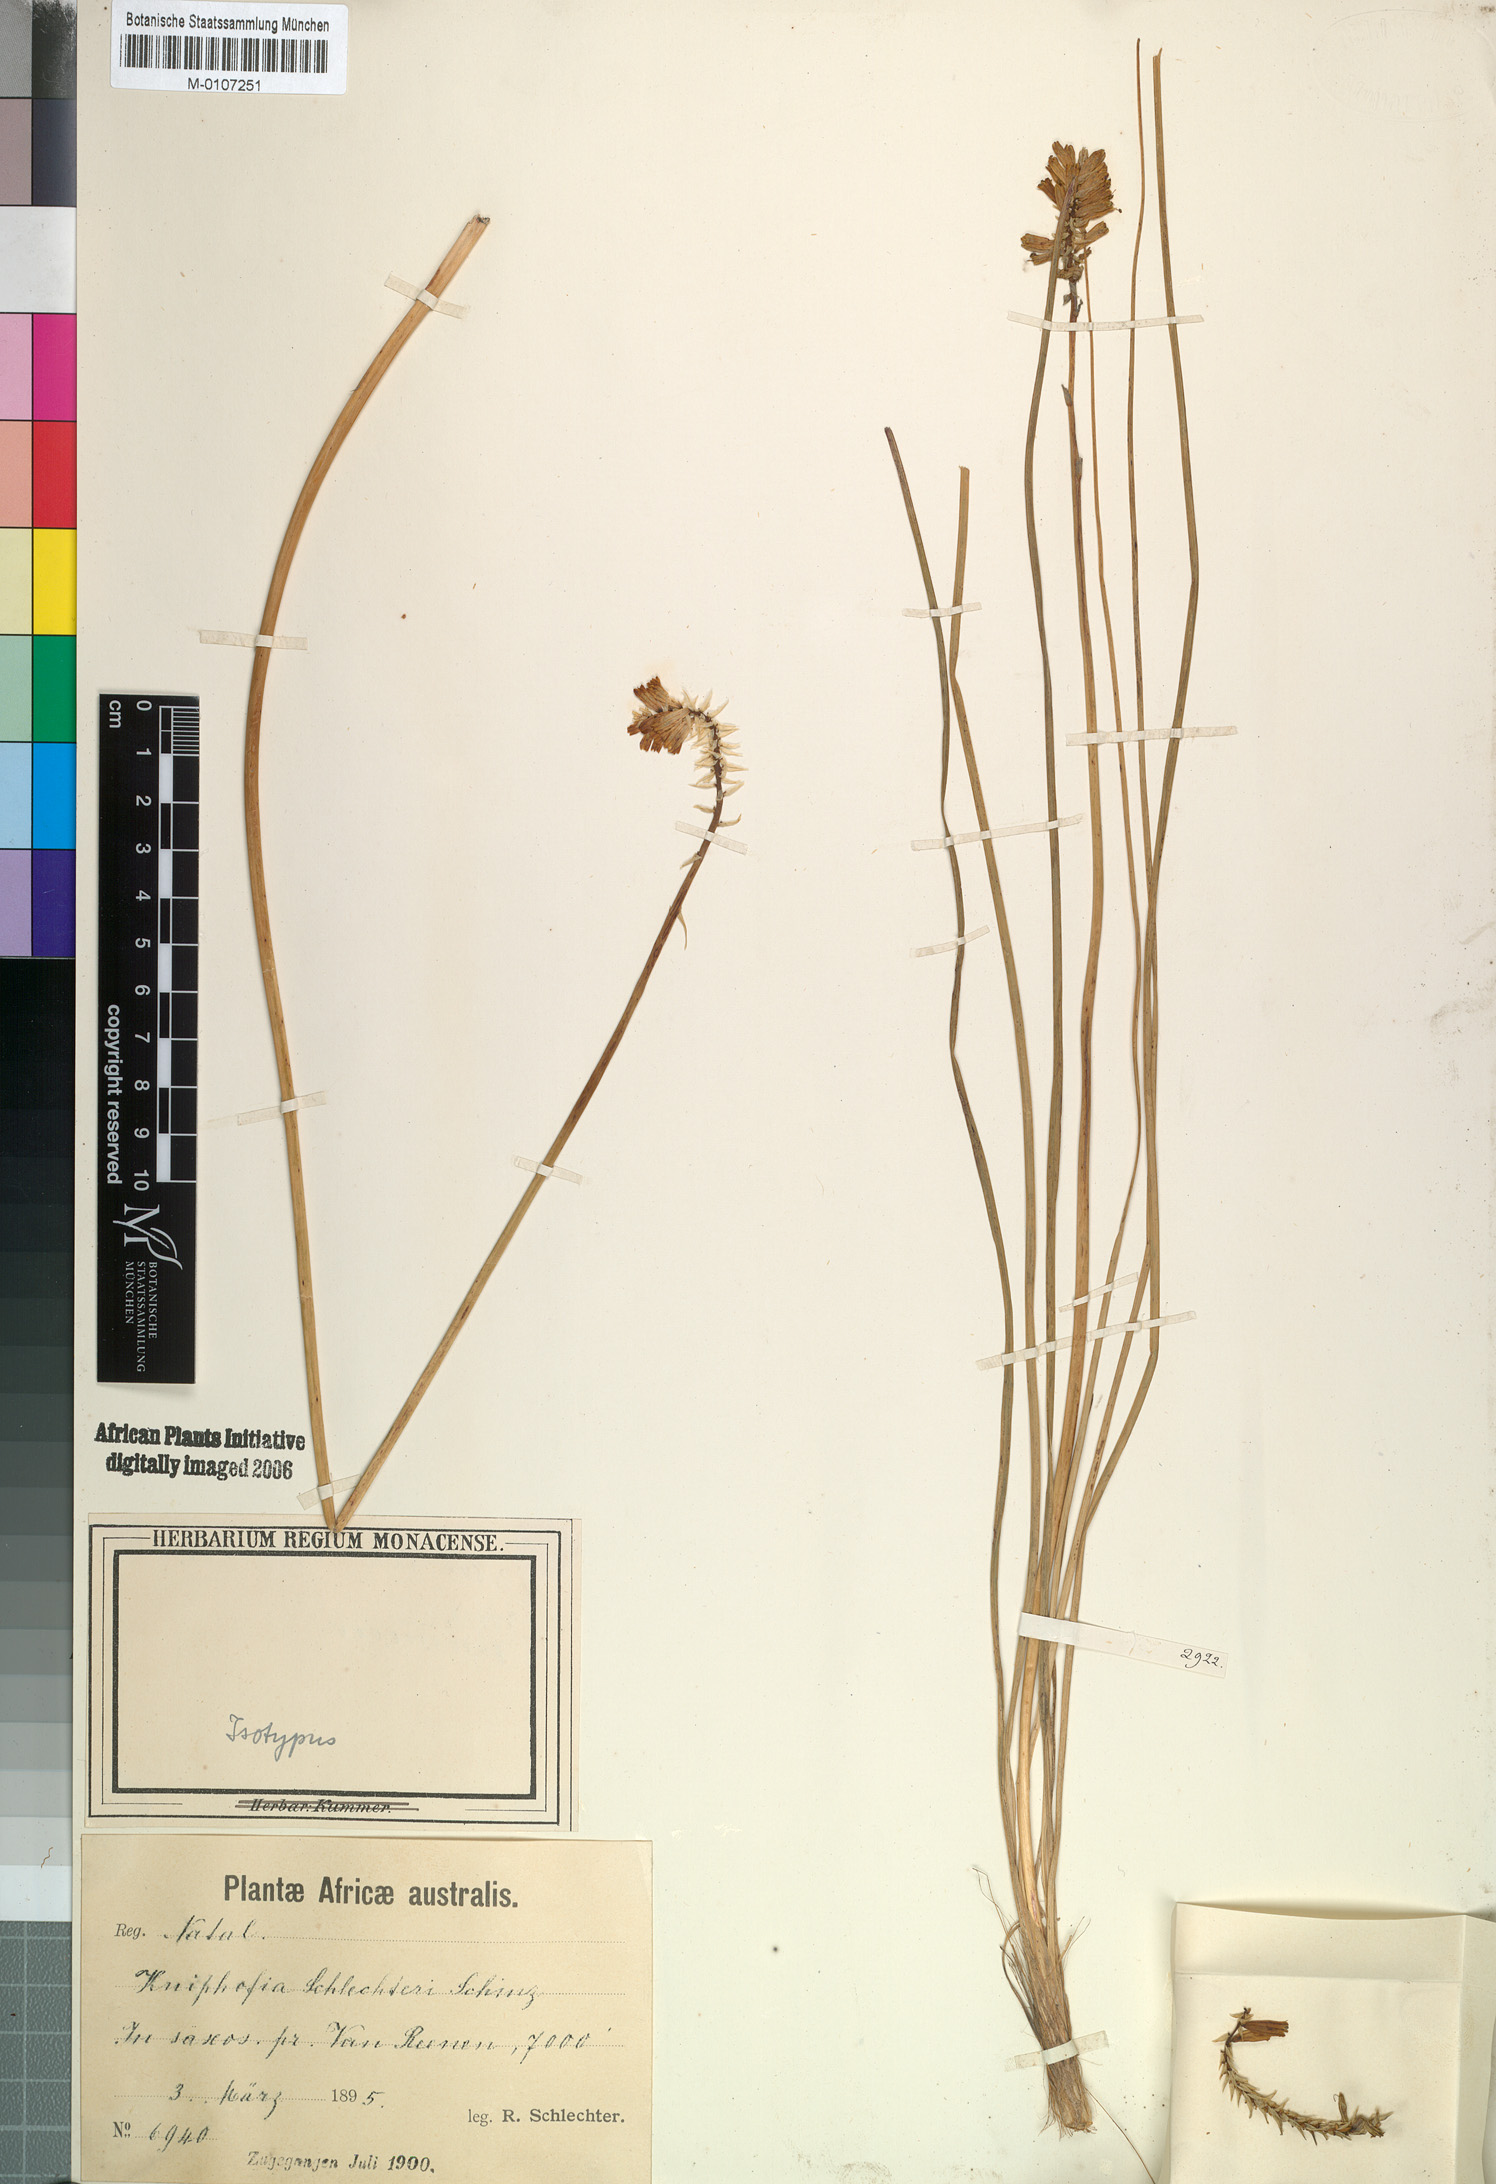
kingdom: Plantae
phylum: Tracheophyta
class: Liliopsida
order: Asparagales
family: Asphodelaceae
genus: Kniphofia
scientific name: Kniphofia breviflora
